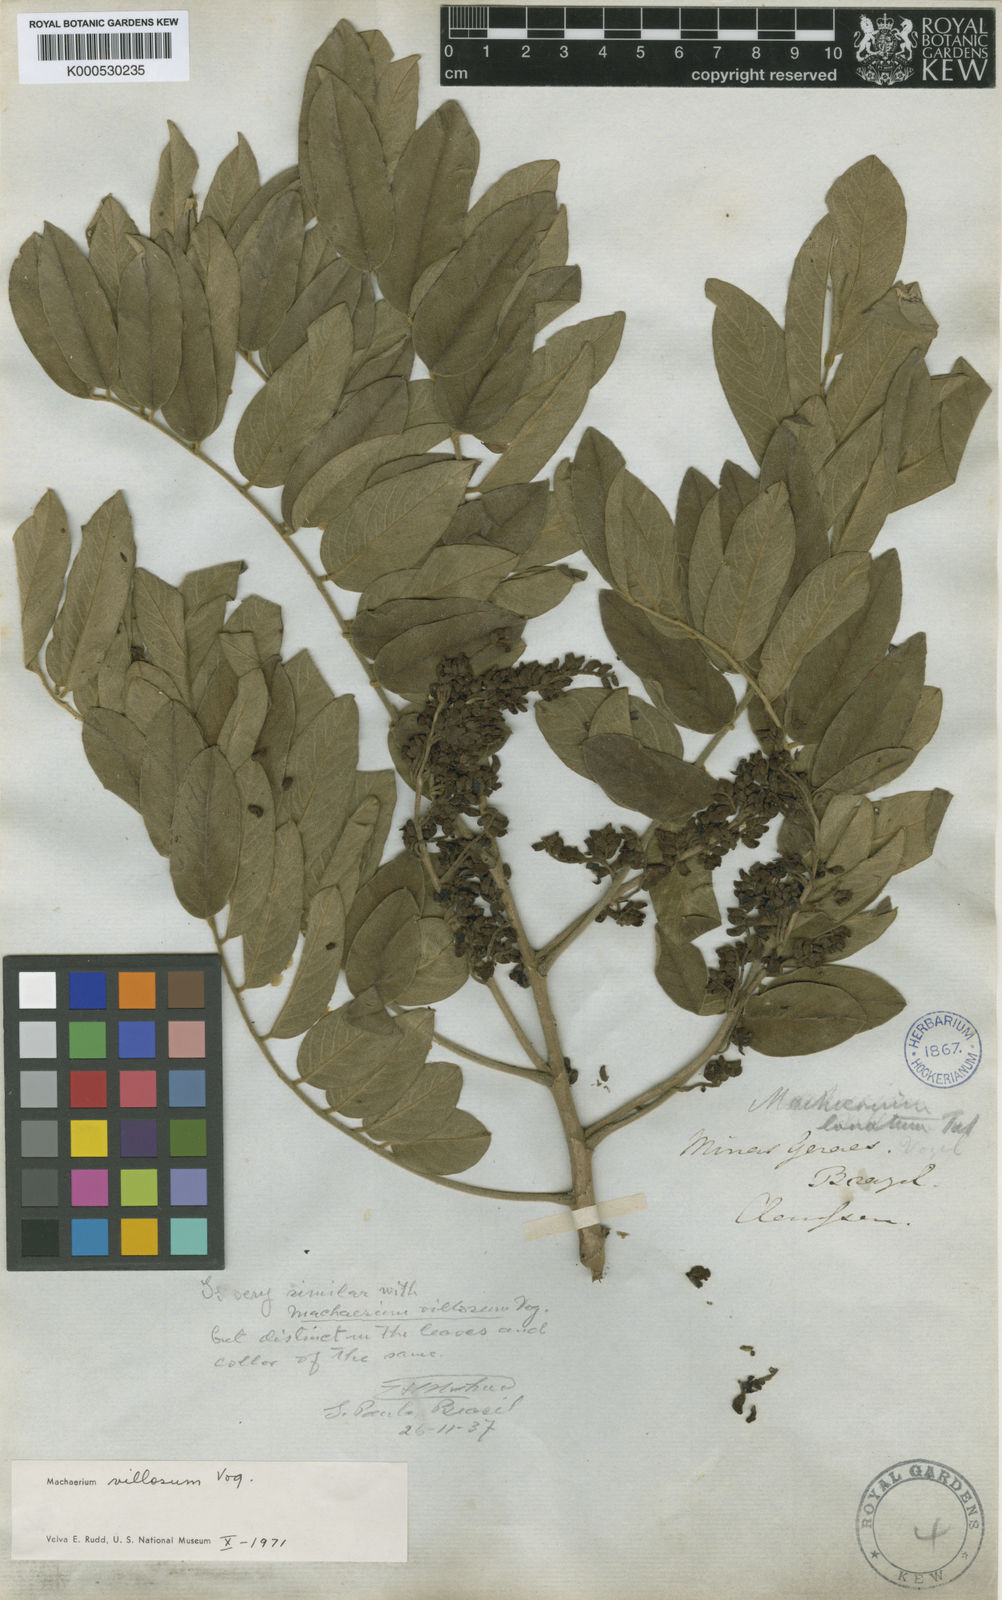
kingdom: Plantae
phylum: Tracheophyta
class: Magnoliopsida
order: Fabales
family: Fabaceae
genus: Machaerium
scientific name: Machaerium villosum
